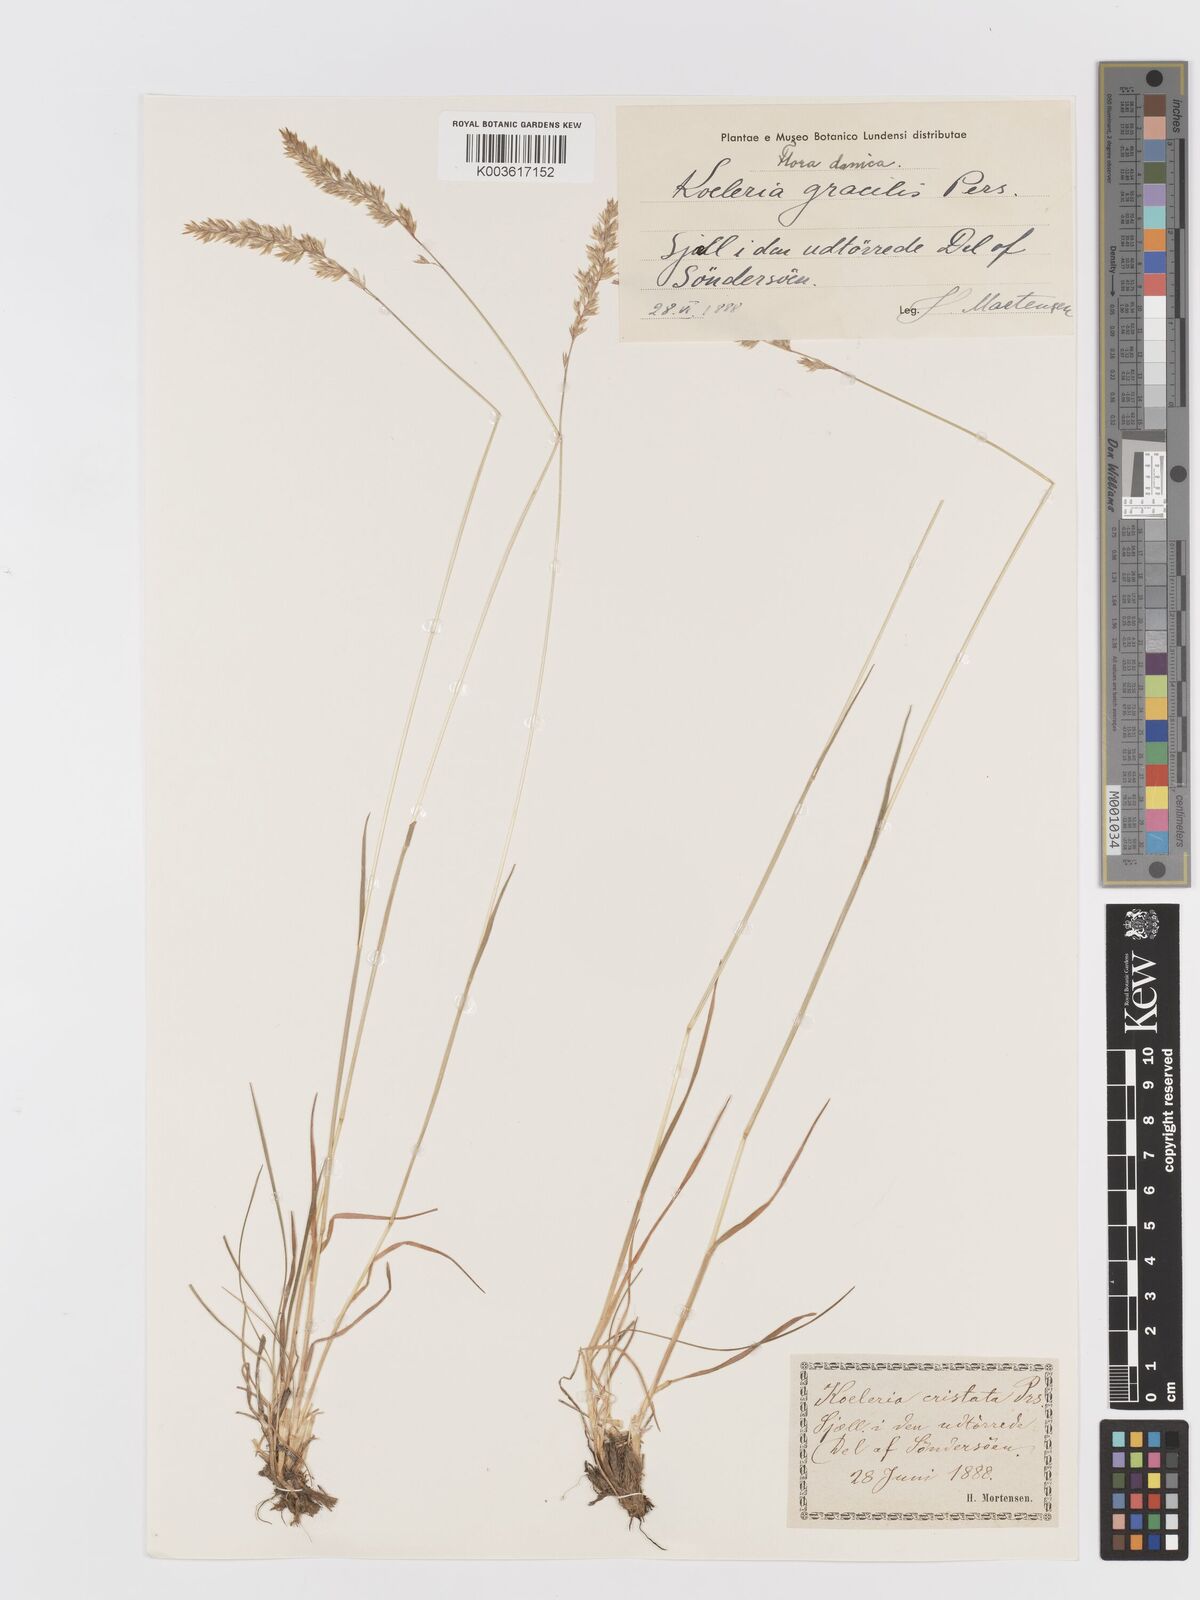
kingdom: Plantae
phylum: Tracheophyta
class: Liliopsida
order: Poales
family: Poaceae
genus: Koeleria
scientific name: Koeleria macrantha
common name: Crested hair-grass
